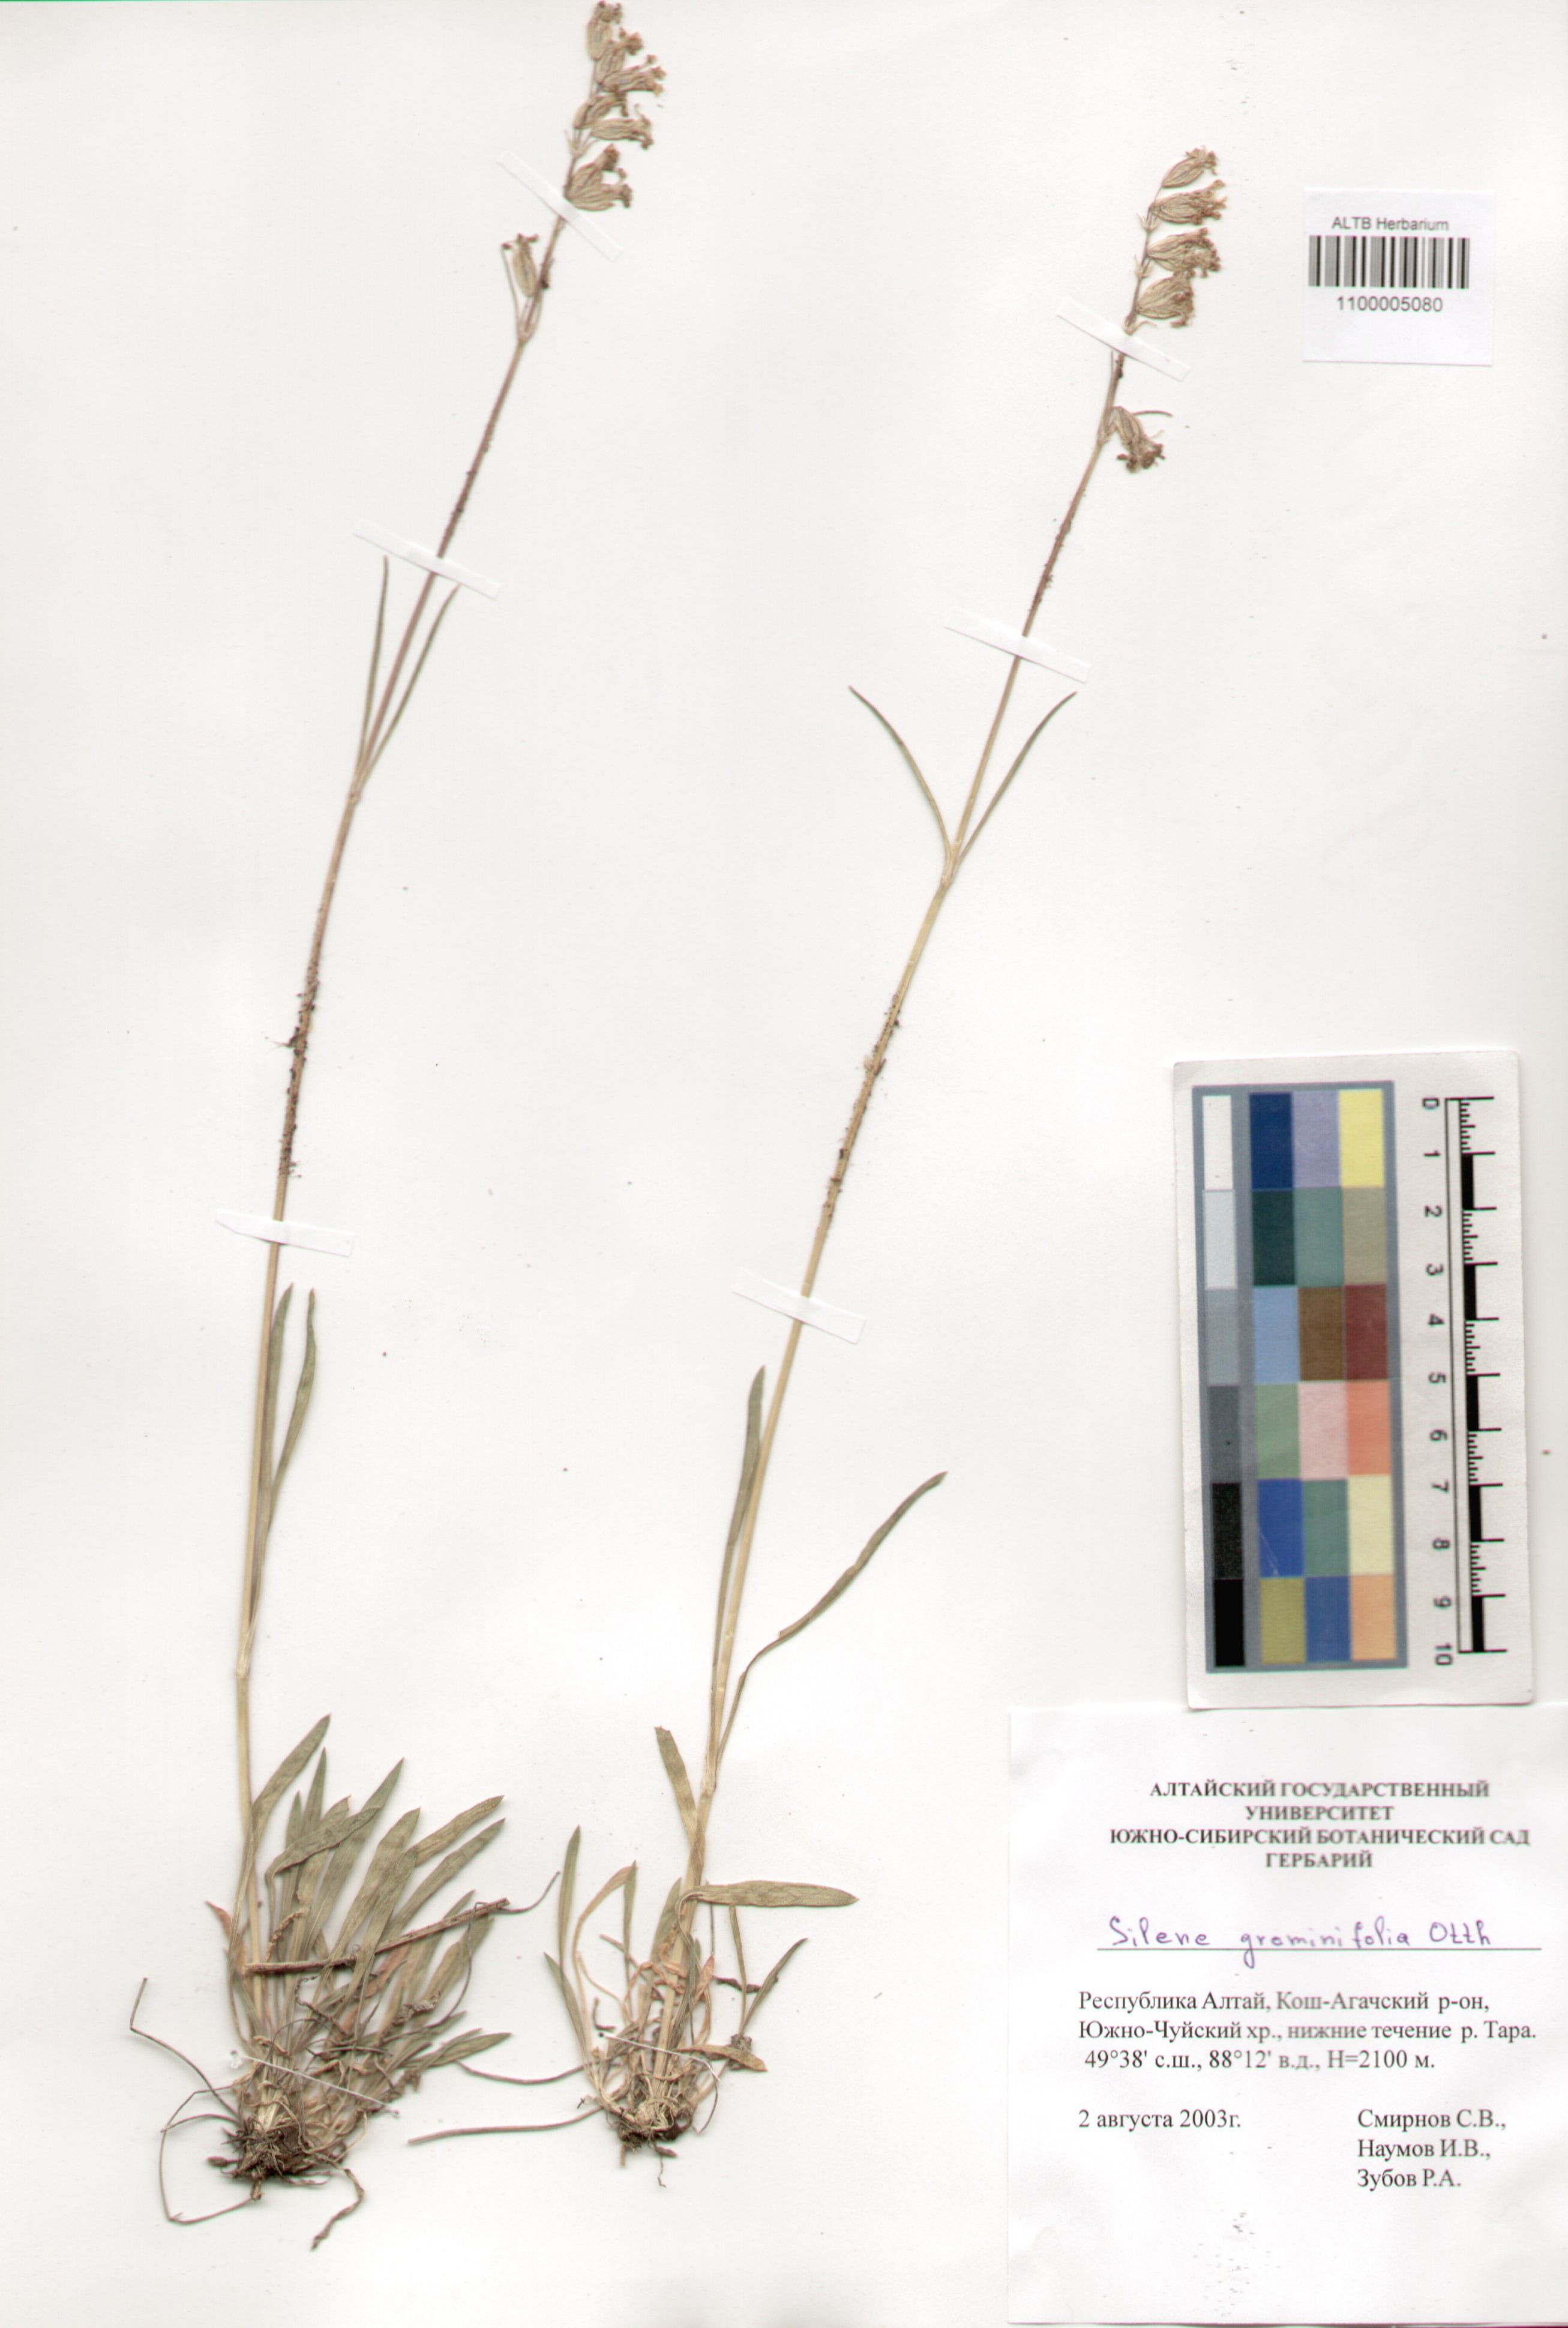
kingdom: Plantae
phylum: Tracheophyta
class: Magnoliopsida
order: Caryophyllales
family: Caryophyllaceae
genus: Silene
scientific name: Silene graminifolia
